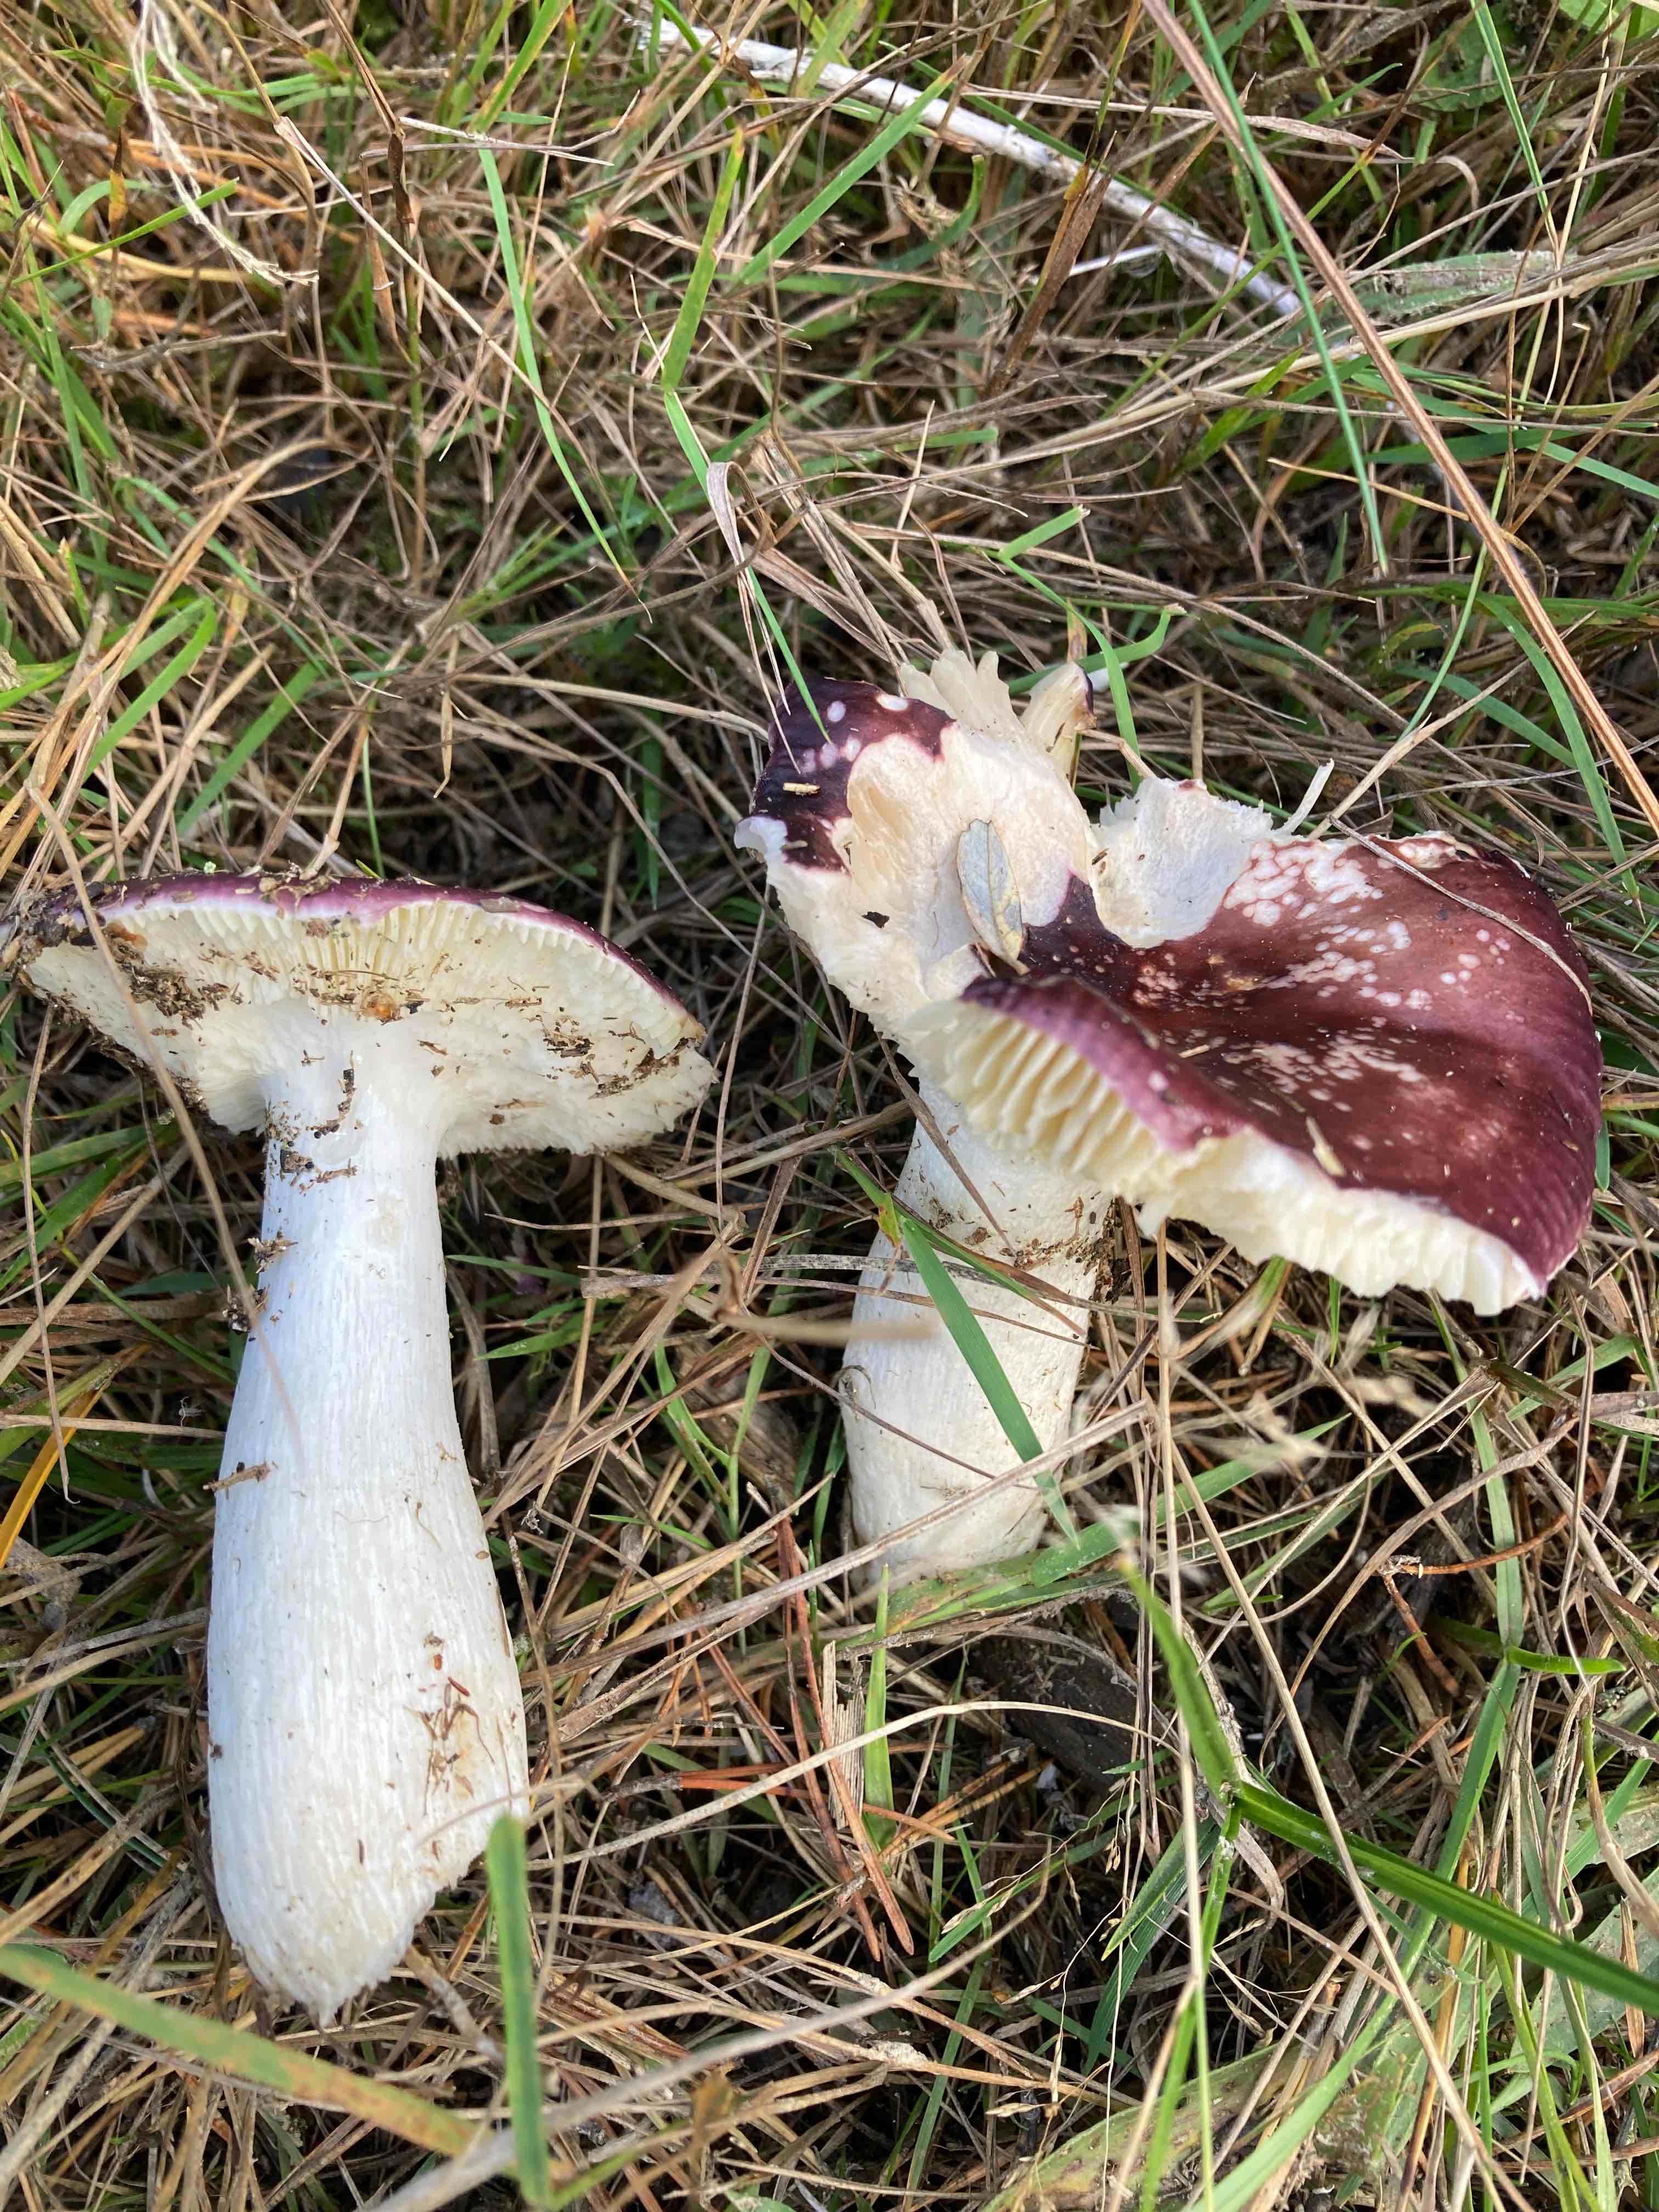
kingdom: Fungi
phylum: Basidiomycota
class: Agaricomycetes
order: Russulales
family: Russulaceae
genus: Russula
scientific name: Russula caerulea
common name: puklet skørhat
